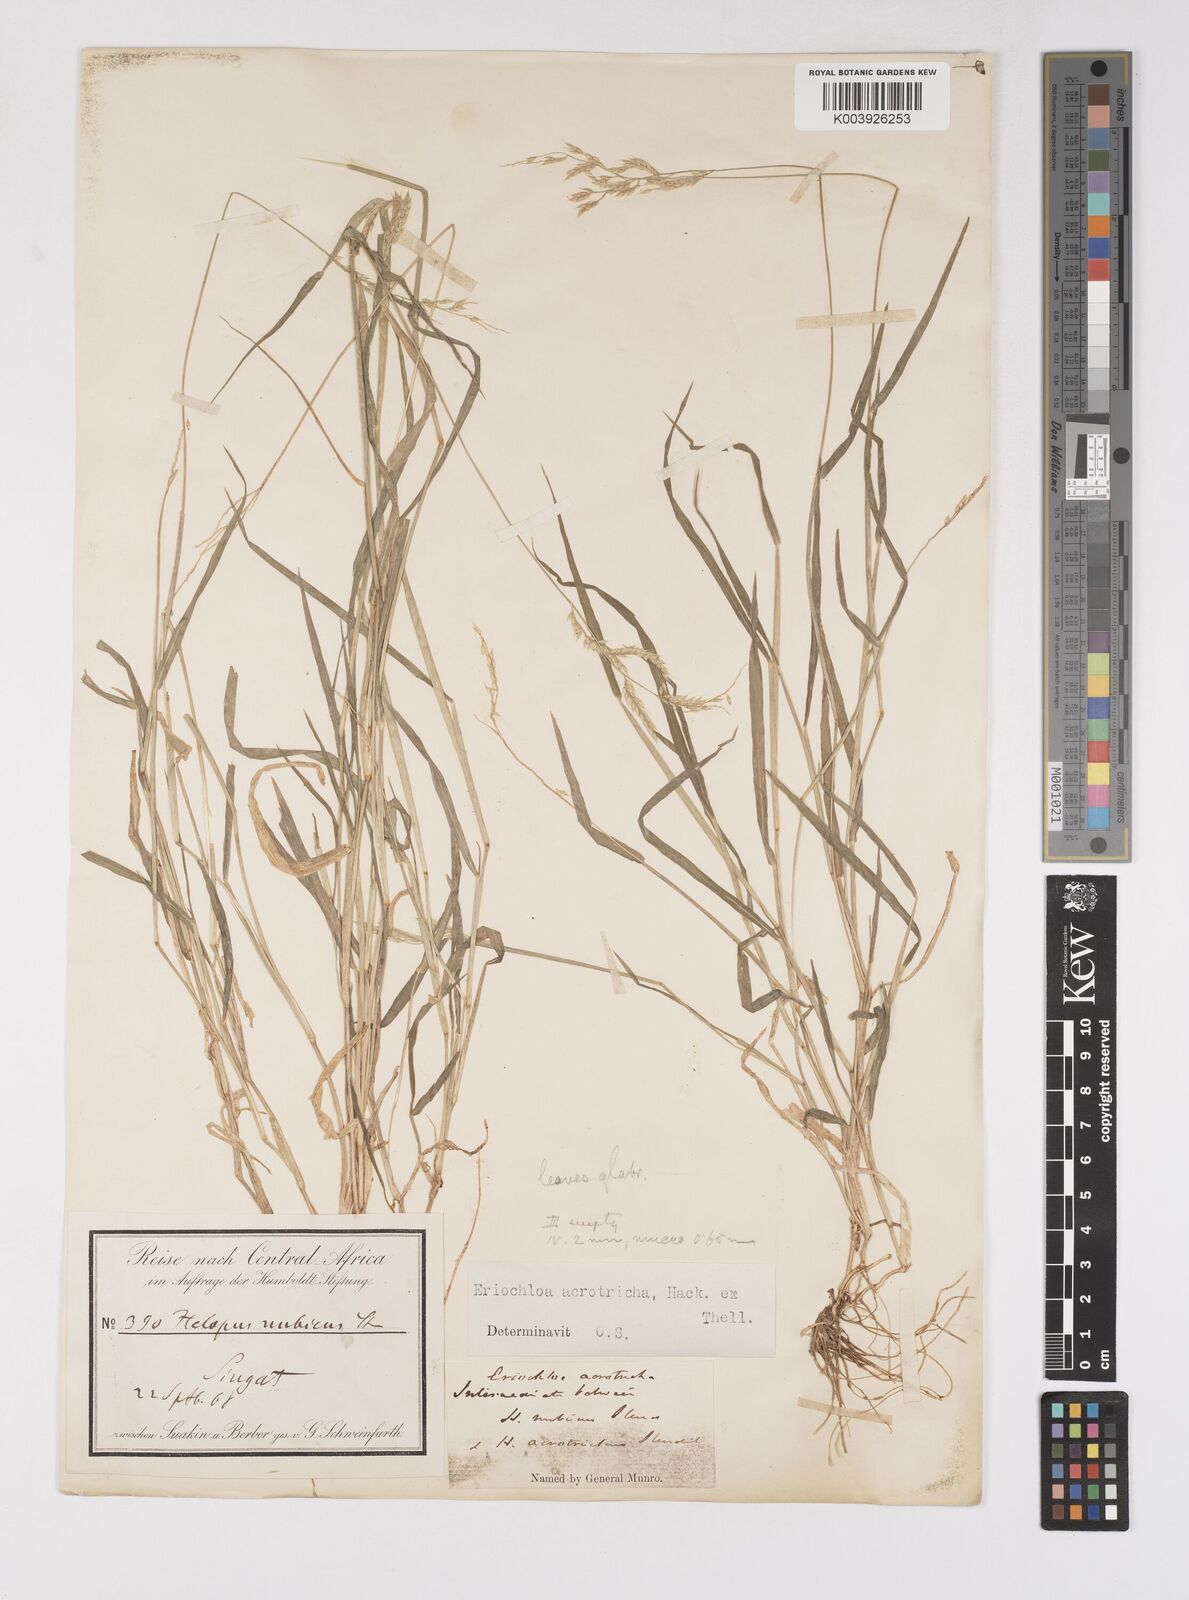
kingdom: Plantae
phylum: Tracheophyta
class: Liliopsida
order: Poales
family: Poaceae
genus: Eriochloa
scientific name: Eriochloa barbatus
